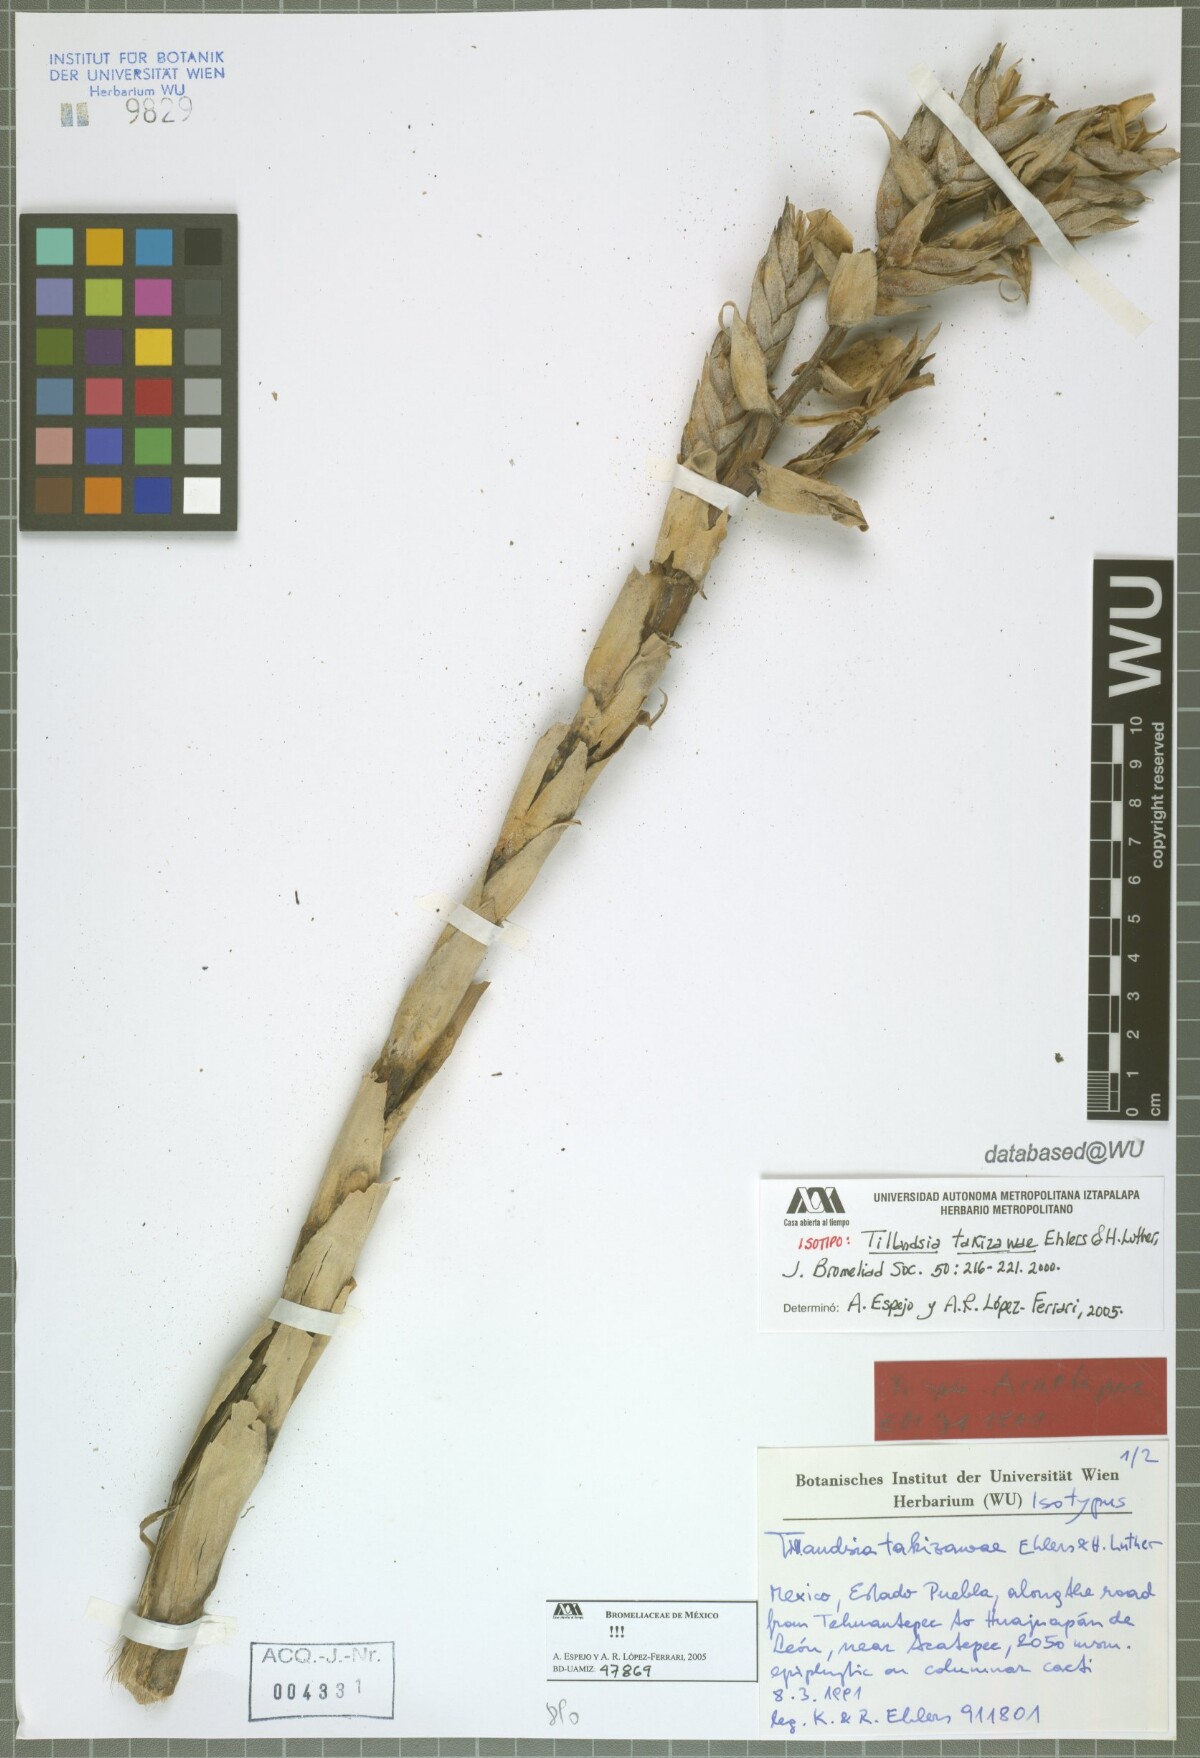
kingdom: Plantae
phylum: Tracheophyta
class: Liliopsida
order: Poales
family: Bromeliaceae
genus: Tillandsia
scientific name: Tillandsia takizawae
